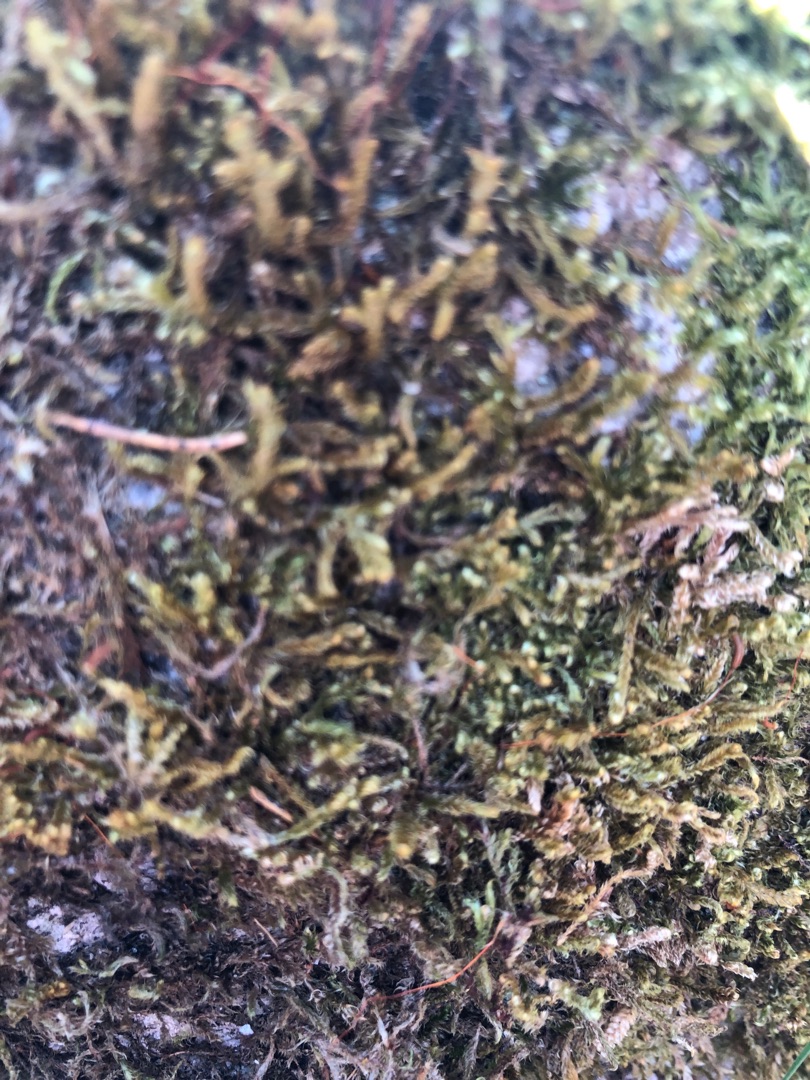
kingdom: Plantae
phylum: Bryophyta
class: Bryopsida
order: Hypnales
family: Hypnaceae
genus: Hypnum
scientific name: Hypnum cupressiforme
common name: Almindelig cypresmos
